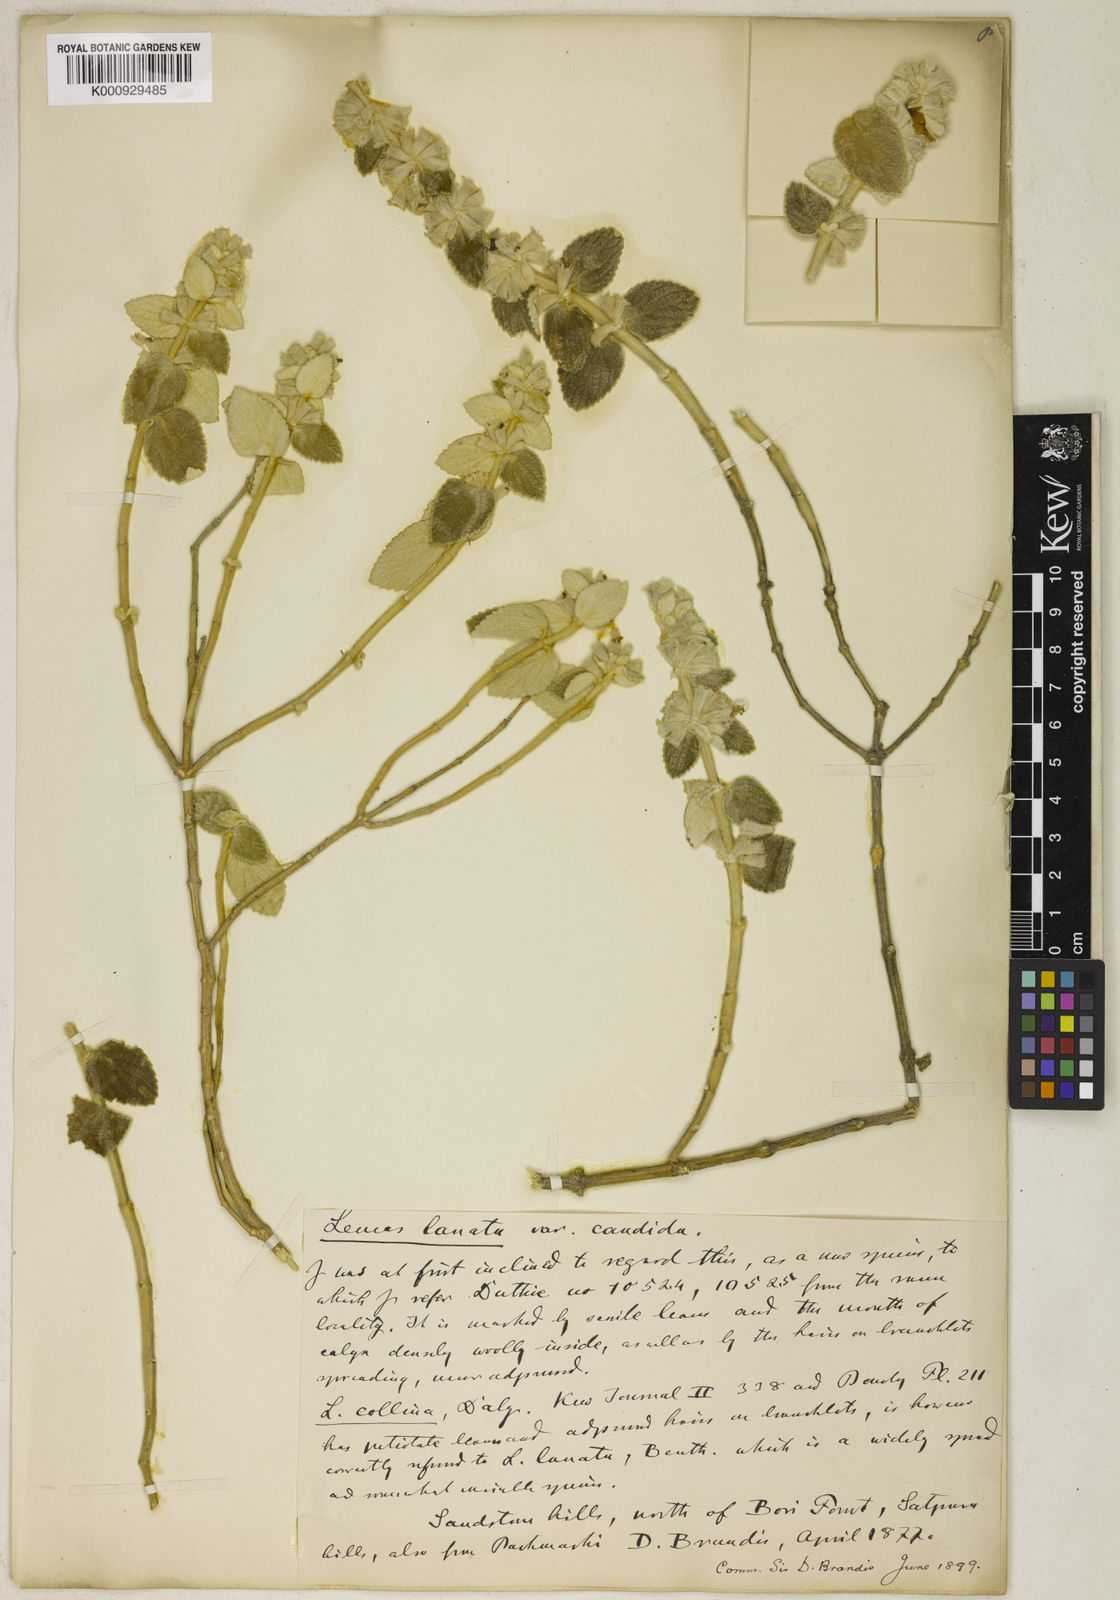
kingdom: Plantae
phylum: Tracheophyta
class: Magnoliopsida
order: Lamiales
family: Lamiaceae
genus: Leucas
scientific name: Leucas lanata
